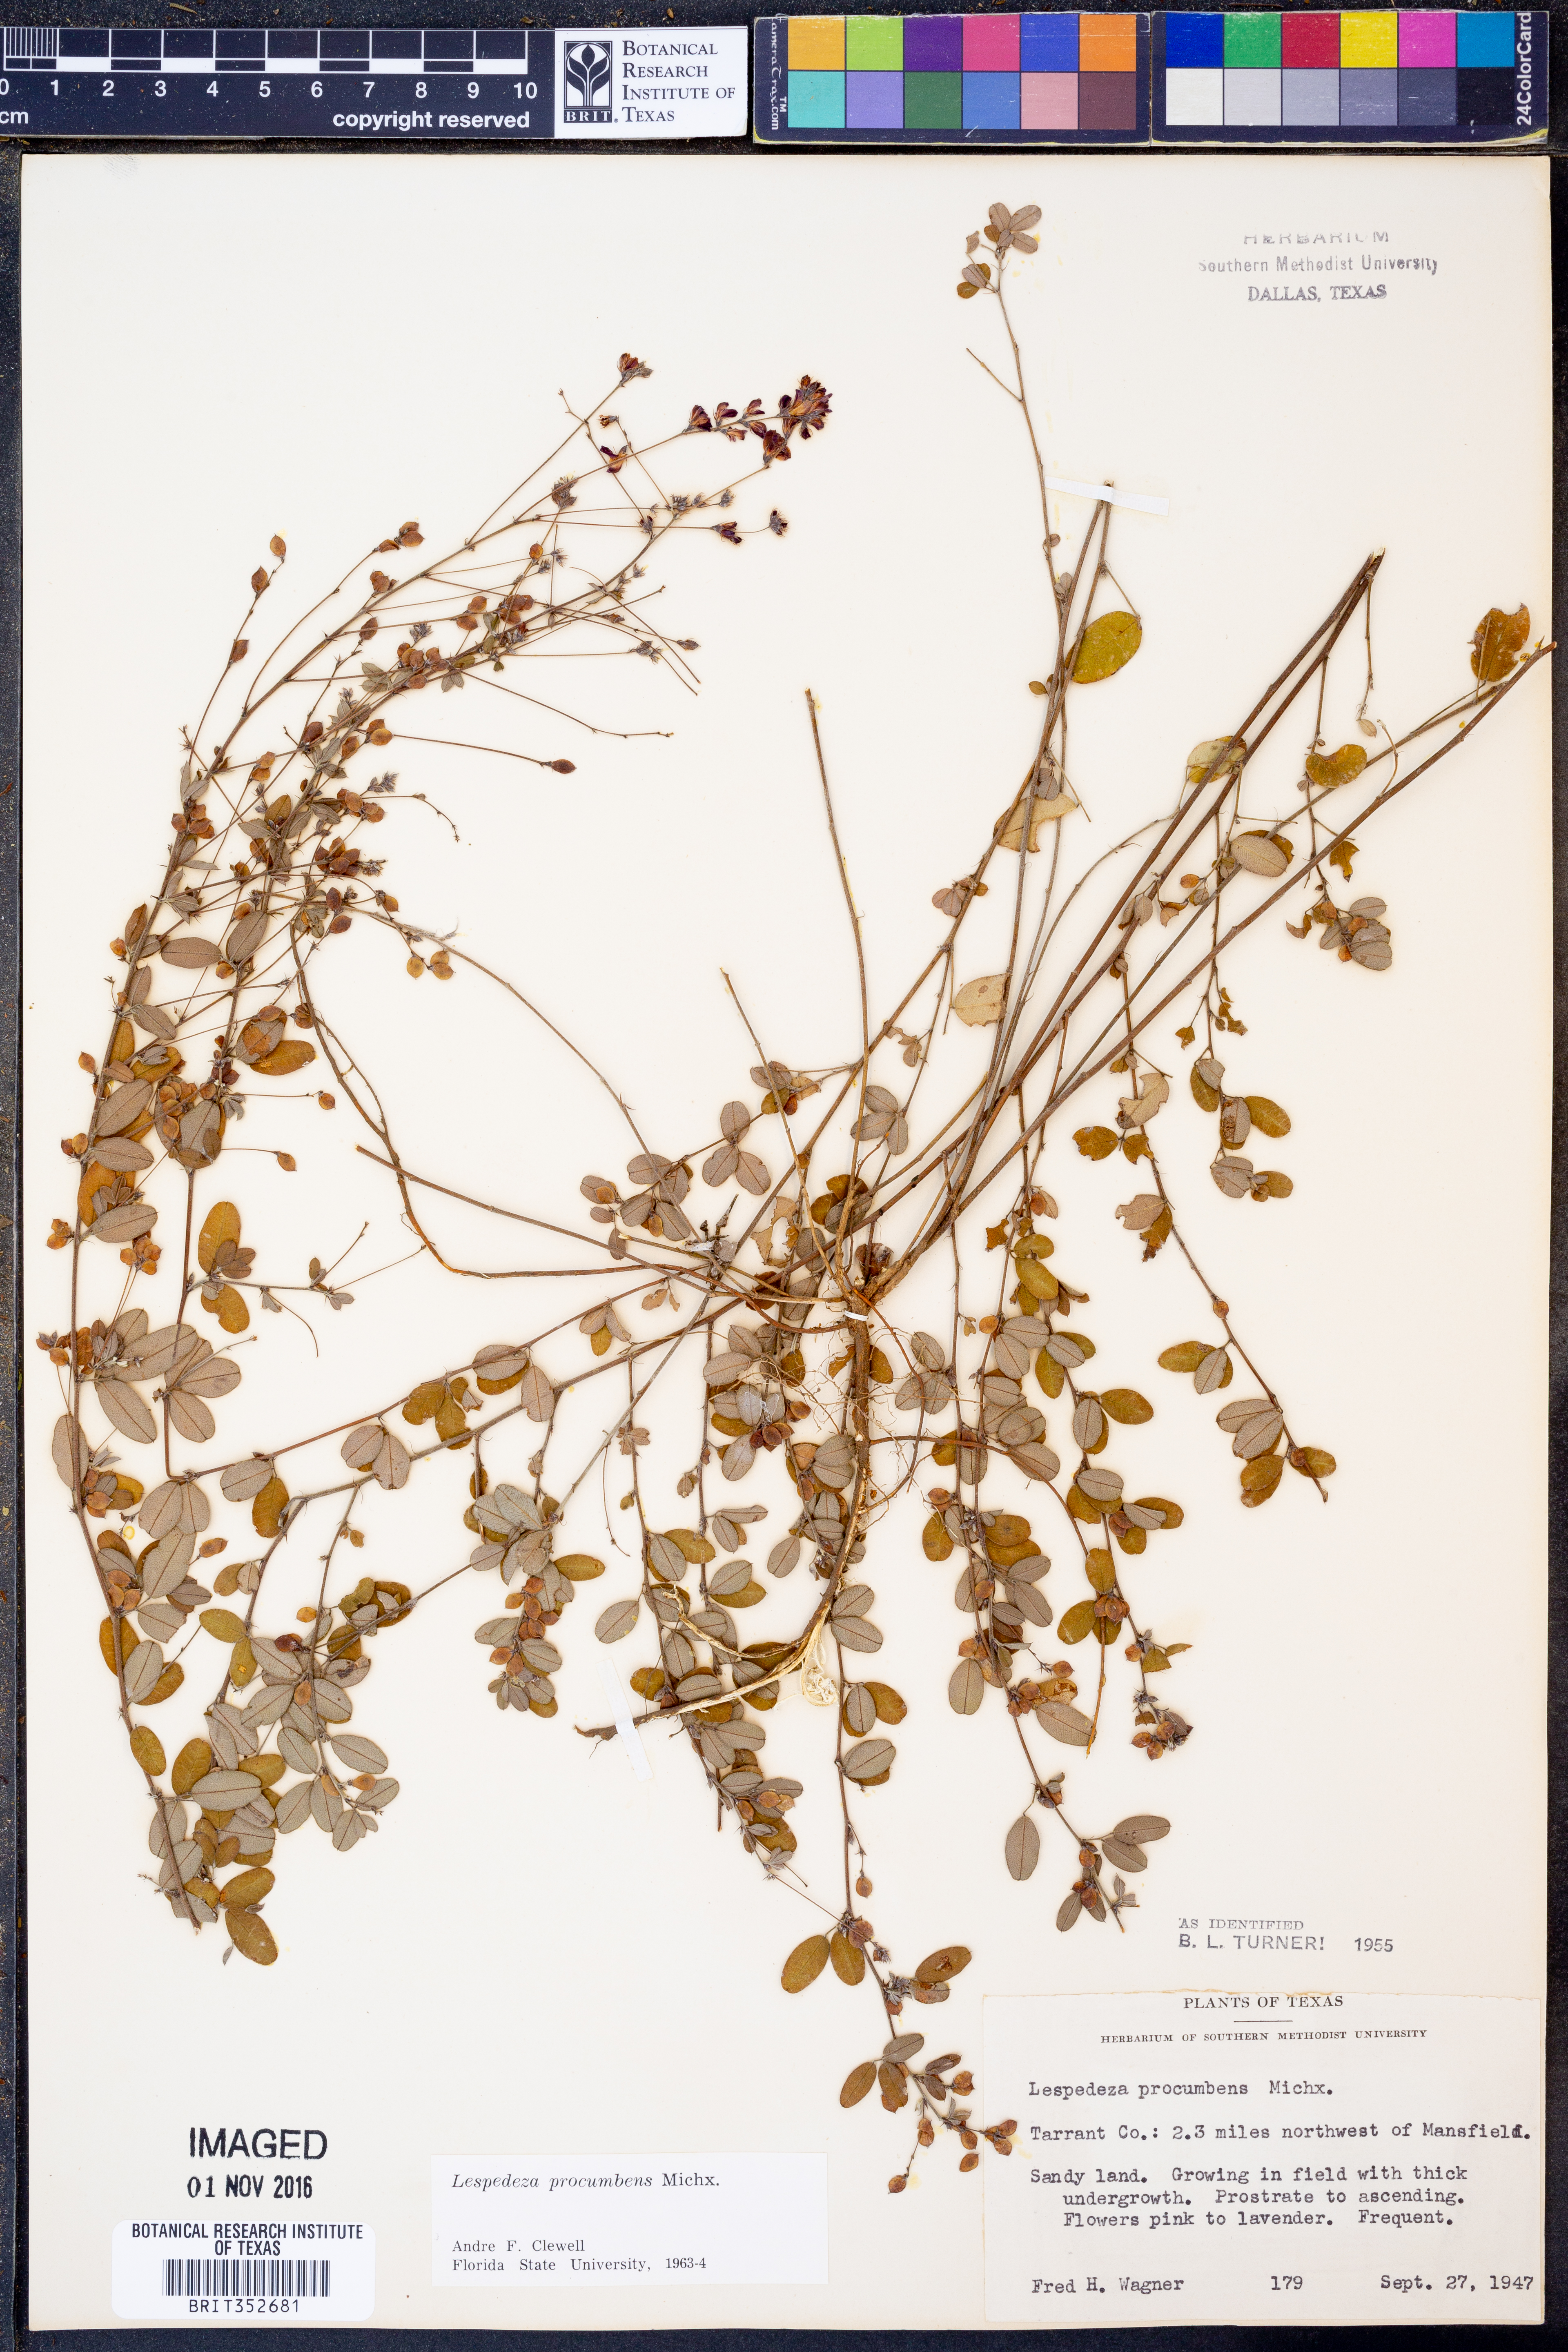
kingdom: Plantae
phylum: Tracheophyta
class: Magnoliopsida
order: Fabales
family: Fabaceae
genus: Lespedeza
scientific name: Lespedeza procumbens
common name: Downy trailing bush-clover
